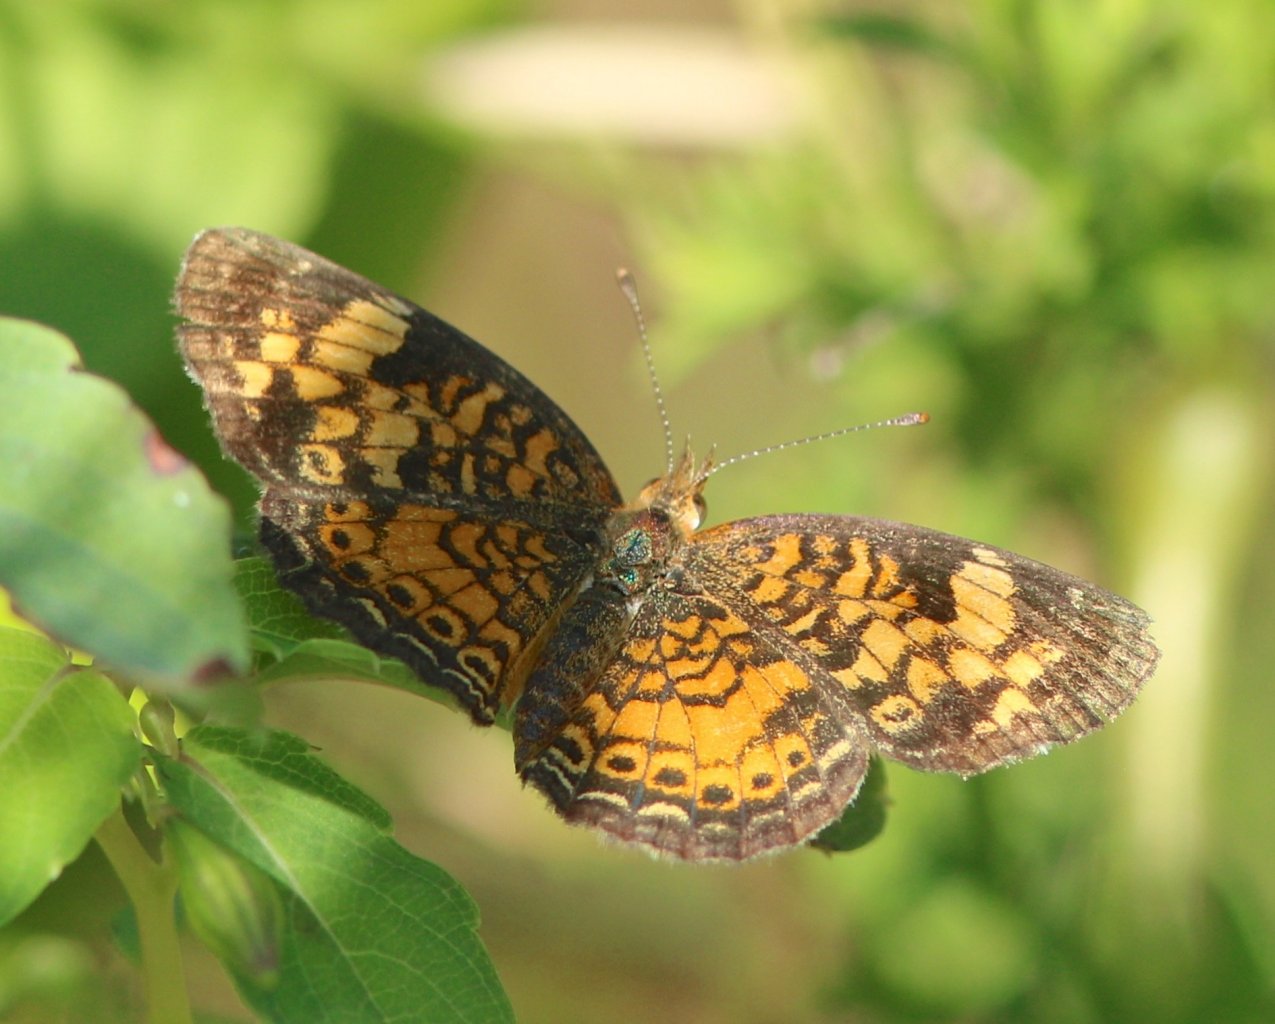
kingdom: Animalia
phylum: Arthropoda
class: Insecta
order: Lepidoptera
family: Nymphalidae
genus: Phyciodes
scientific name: Phyciodes tharos
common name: Pearl Crescent
